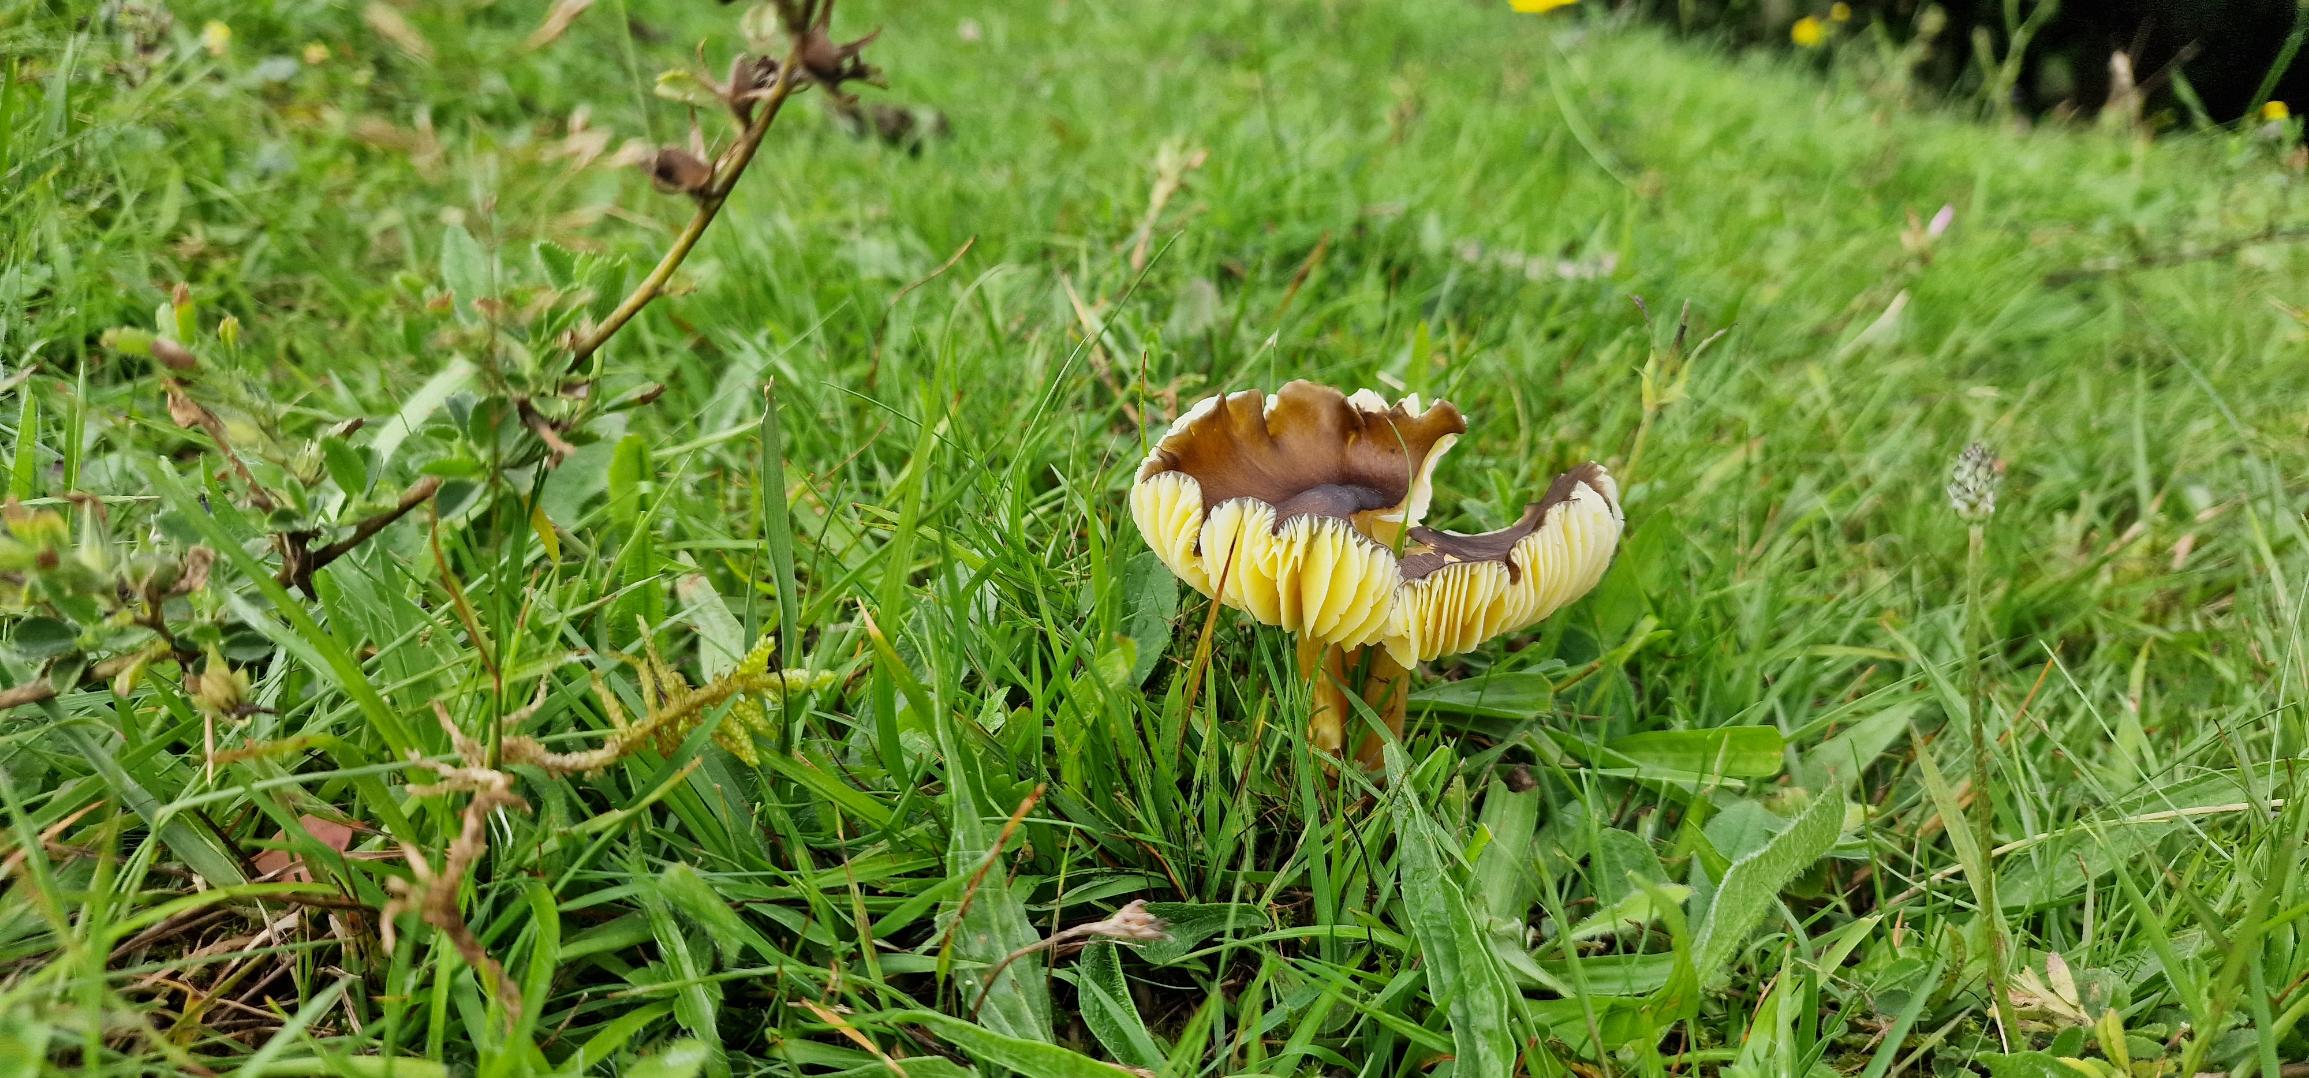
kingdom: Fungi
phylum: Basidiomycota
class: Agaricomycetes
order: Agaricales
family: Hygrophoraceae
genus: Hygrocybe
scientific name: Hygrocybe spadicea
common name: Daddelbrun vokshat
